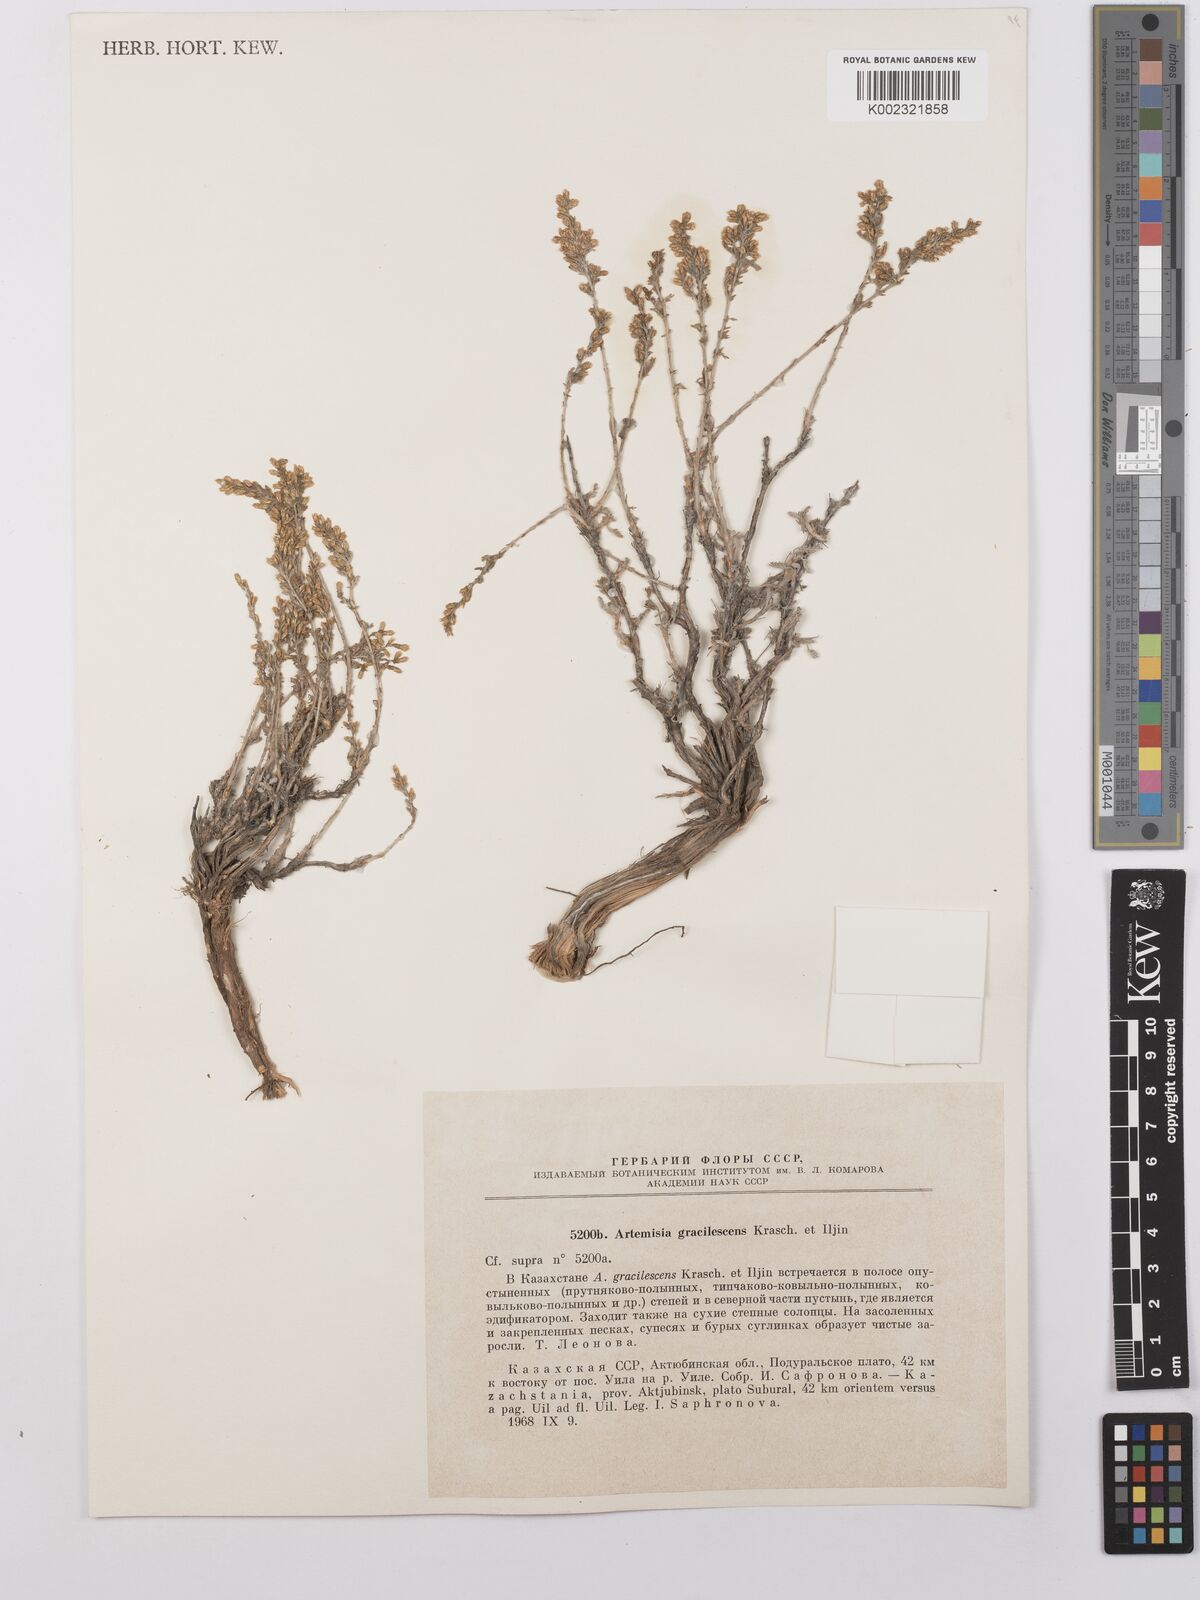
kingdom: Plantae
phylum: Tracheophyta
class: Magnoliopsida
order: Asterales
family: Asteraceae
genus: Artemisia
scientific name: Artemisia gracilescens
